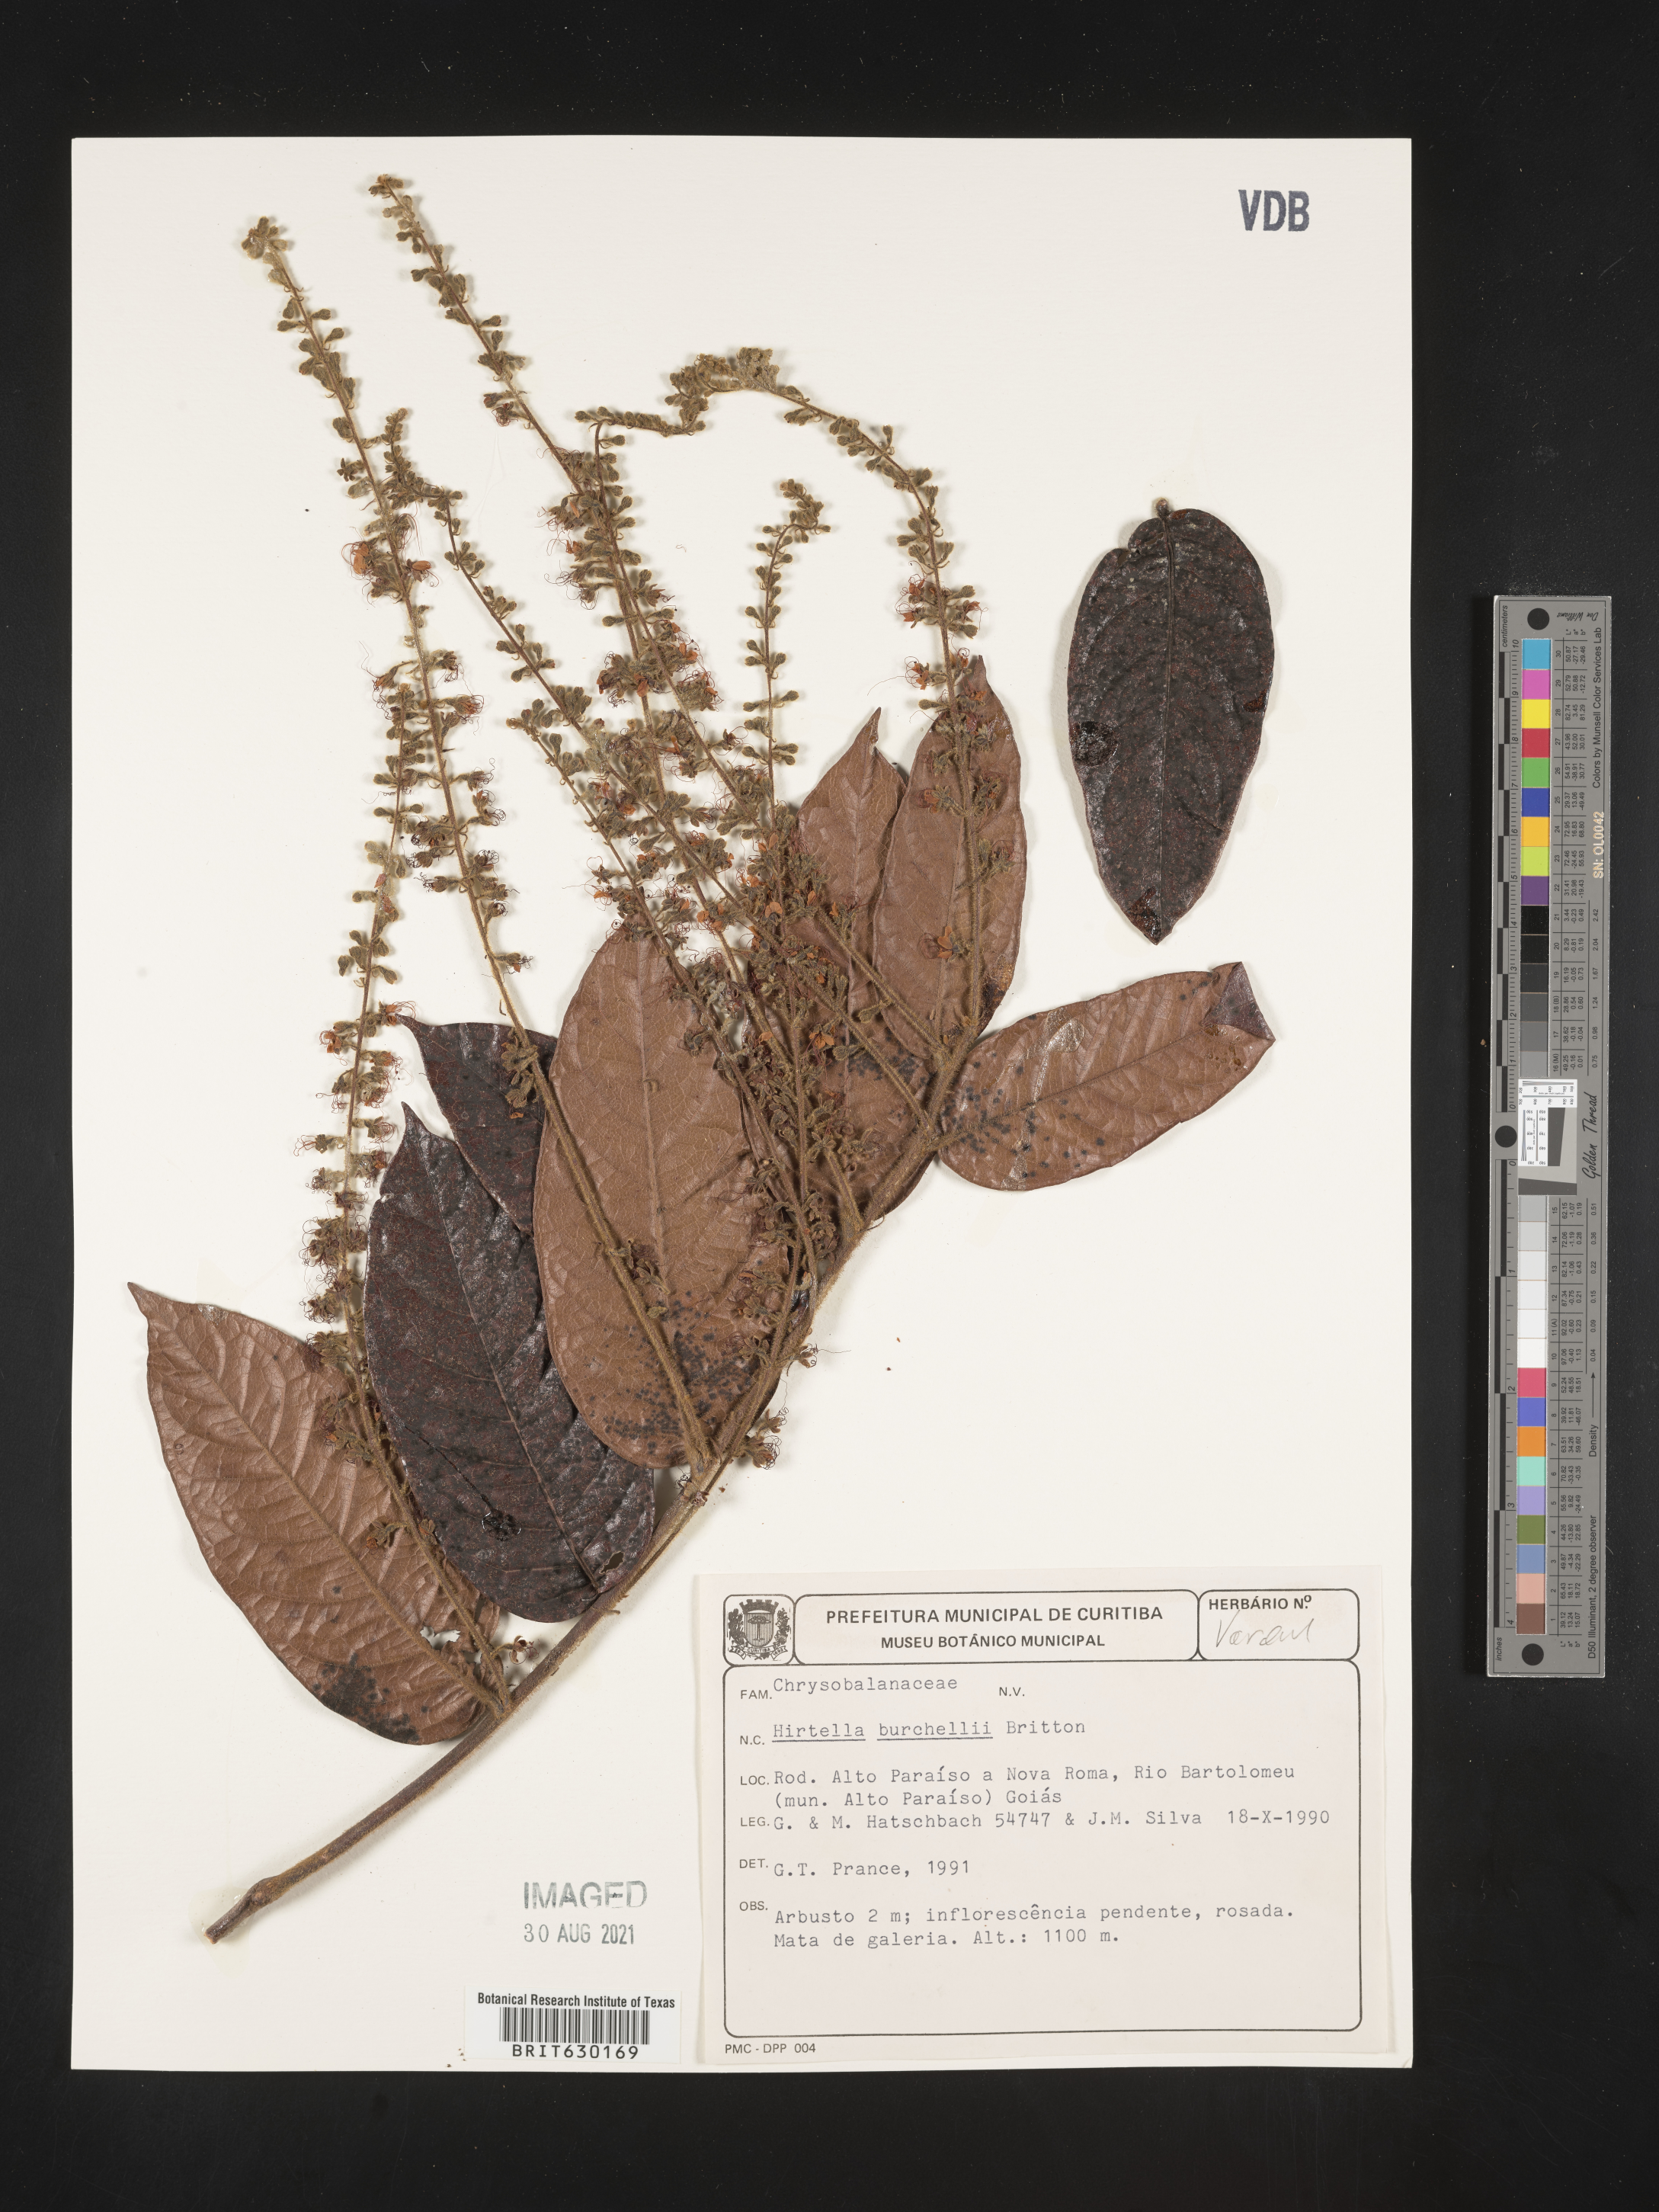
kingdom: Plantae
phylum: Tracheophyta
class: Magnoliopsida
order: Malpighiales
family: Chrysobalanaceae
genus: Hirtella
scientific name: Hirtella burchellii
